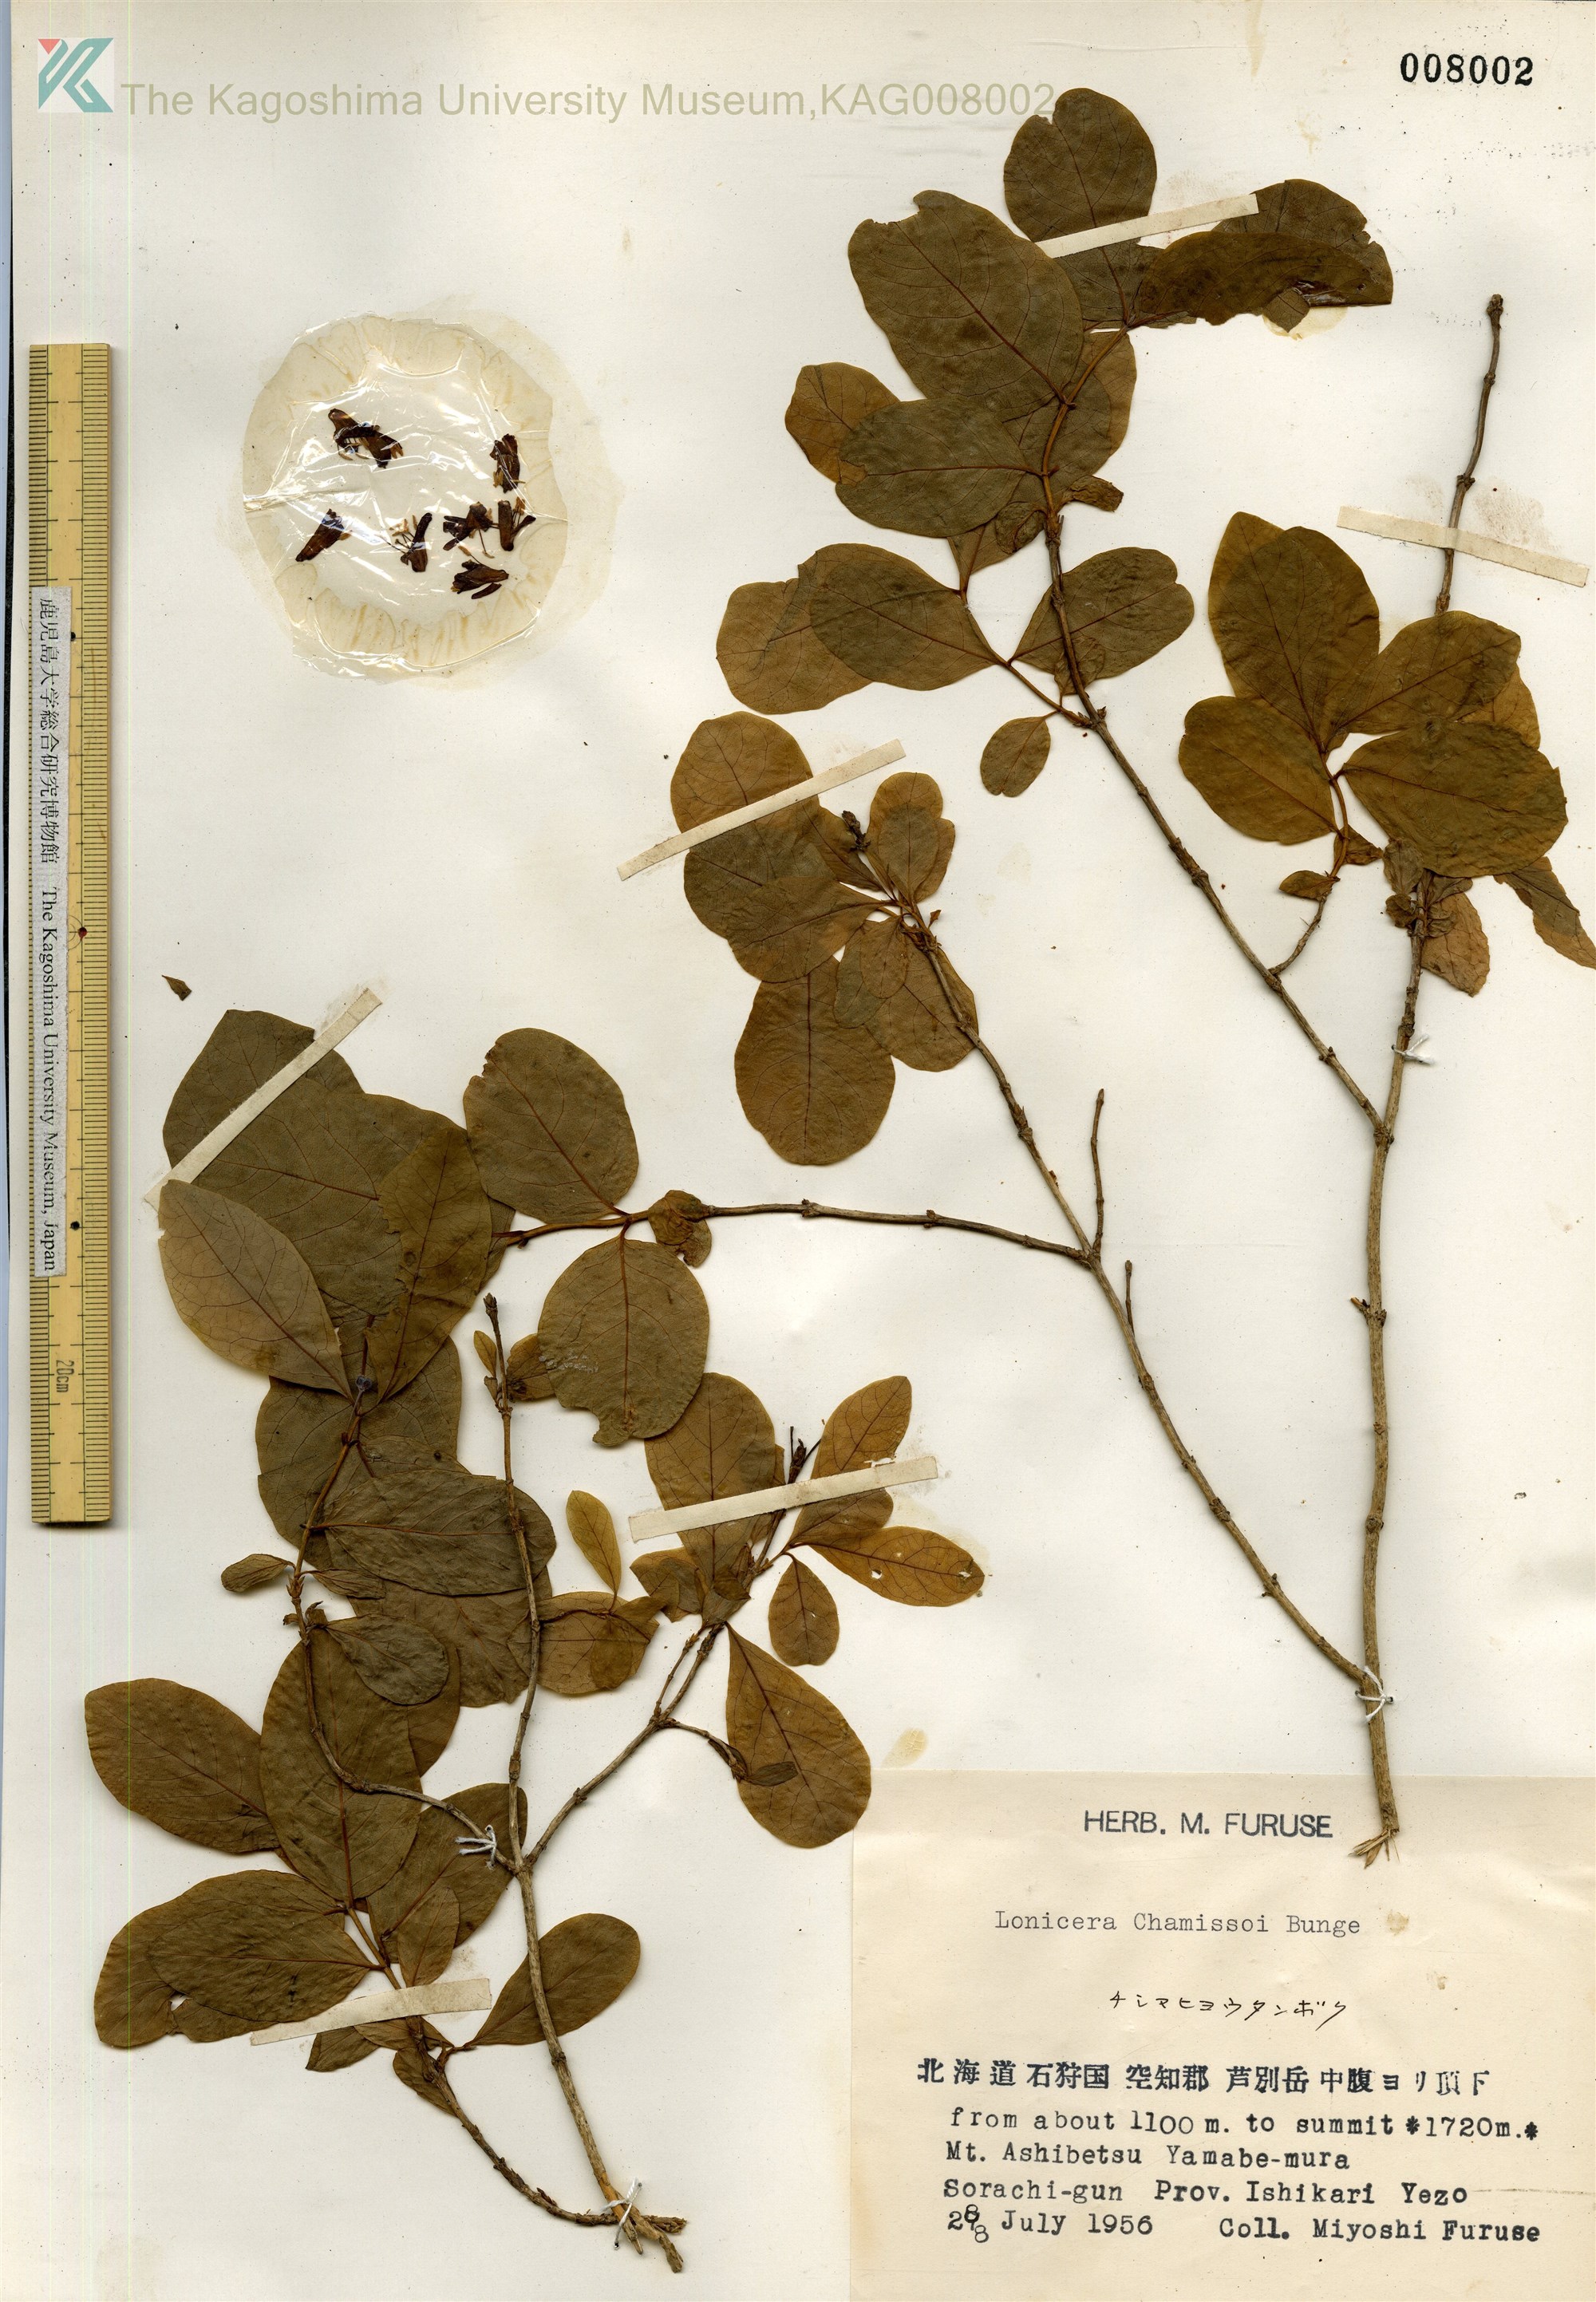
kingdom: Plantae
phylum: Tracheophyta
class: Magnoliopsida
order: Dipsacales
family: Caprifoliaceae
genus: Lonicera
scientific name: Lonicera chamissoi
